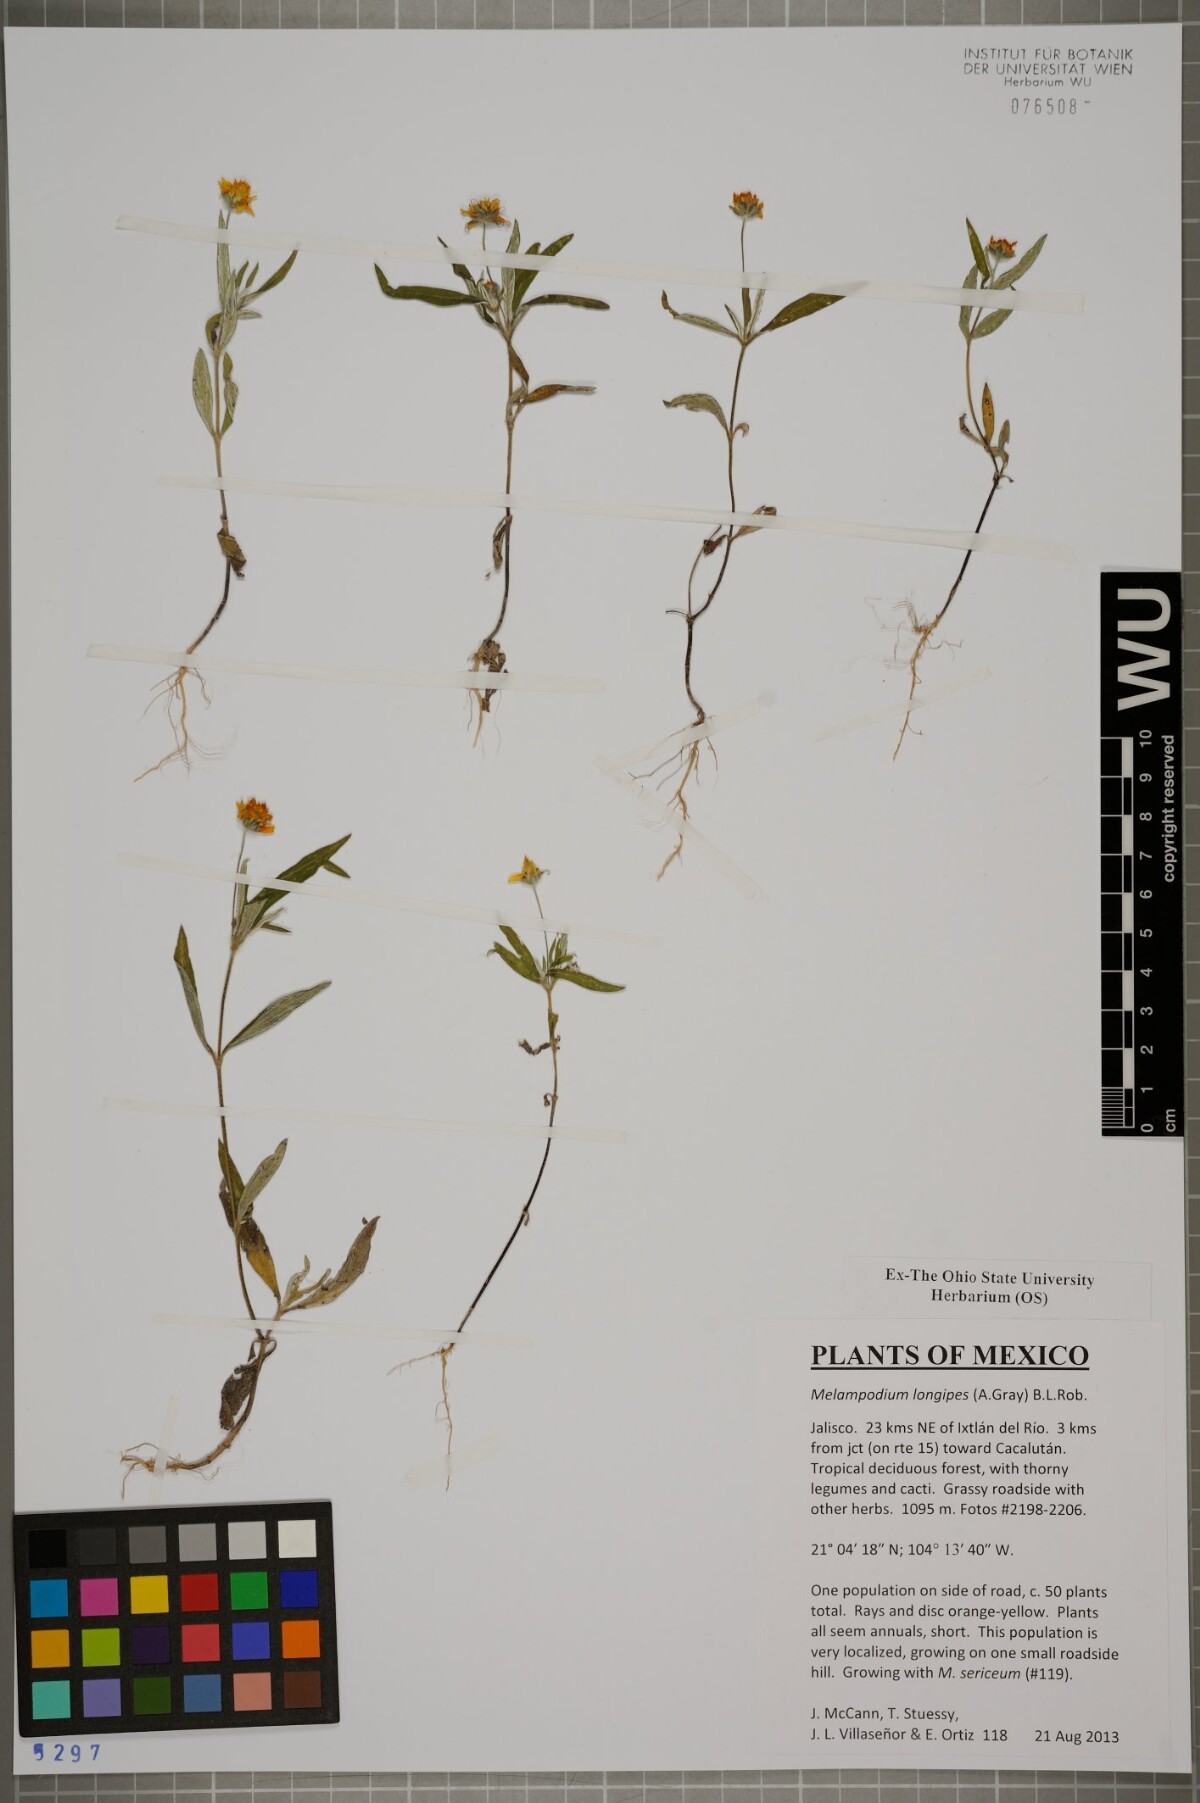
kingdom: Plantae
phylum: Tracheophyta
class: Magnoliopsida
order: Asterales
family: Asteraceae
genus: Melampodium
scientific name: Melampodium longipes
